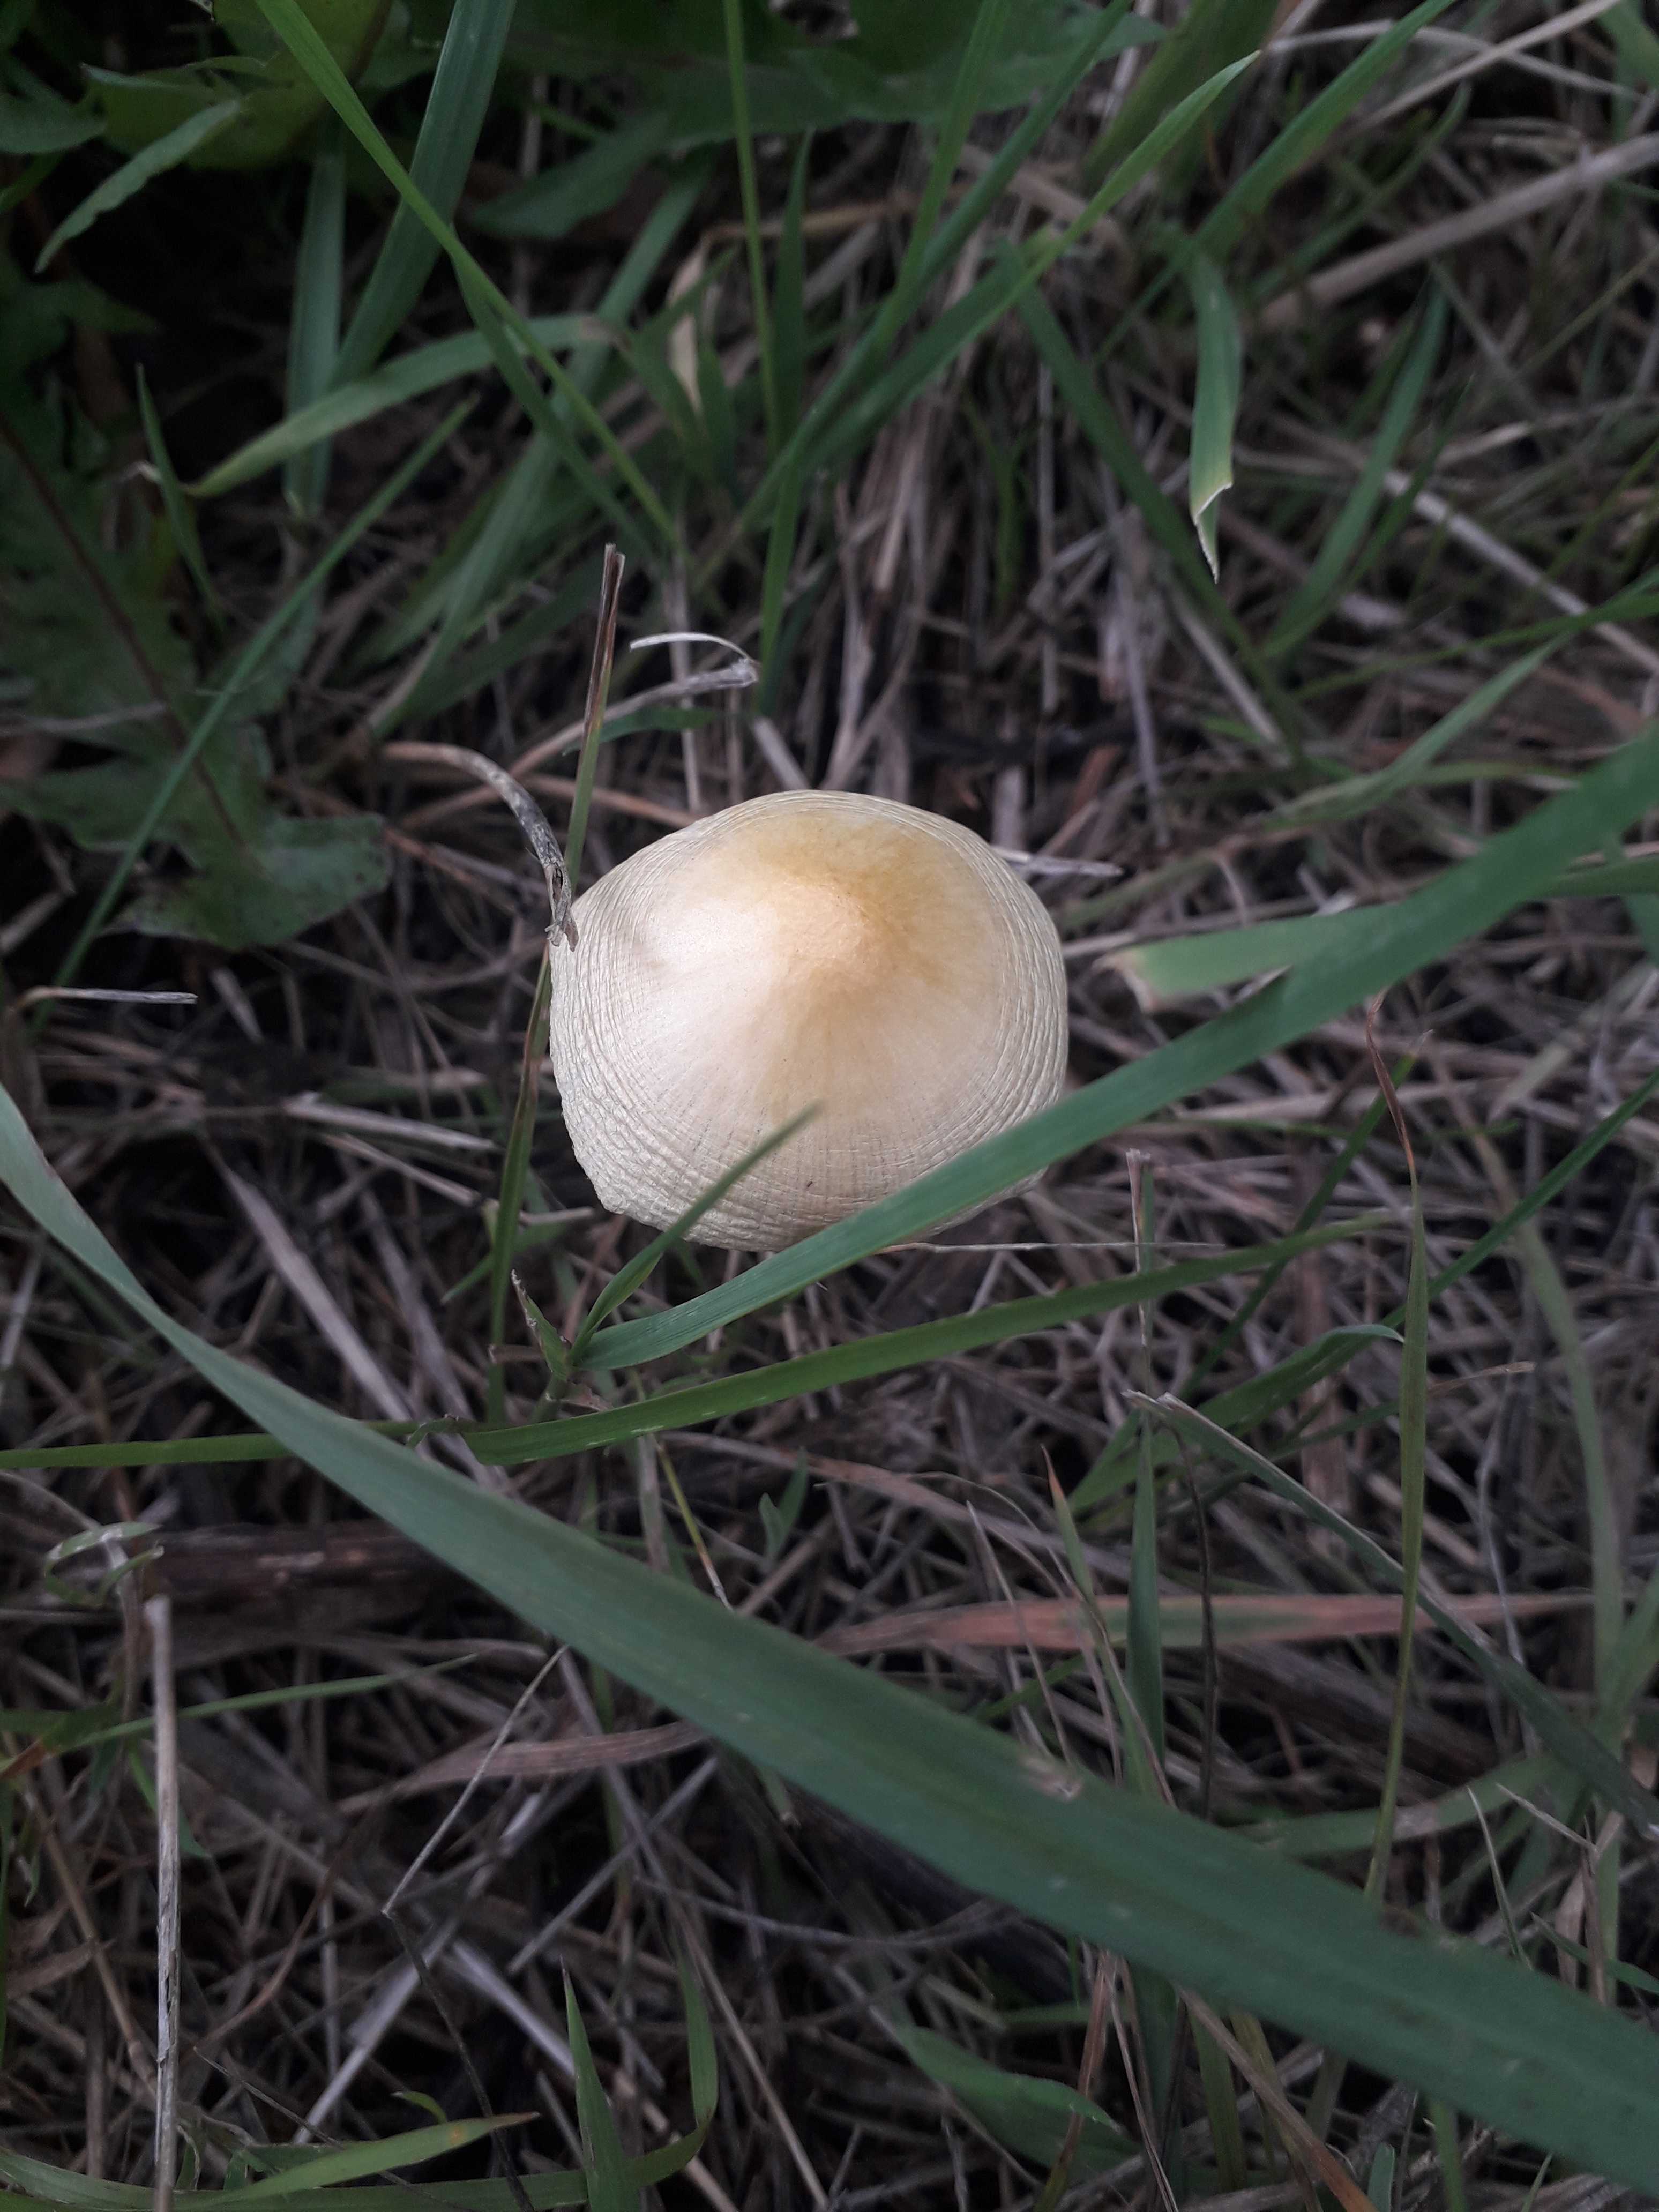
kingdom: Fungi
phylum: Basidiomycota
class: Agaricomycetes
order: Agaricales
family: Bolbitiaceae
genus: Bolbitius
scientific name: Bolbitius titubans
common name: almindelig gulhat
